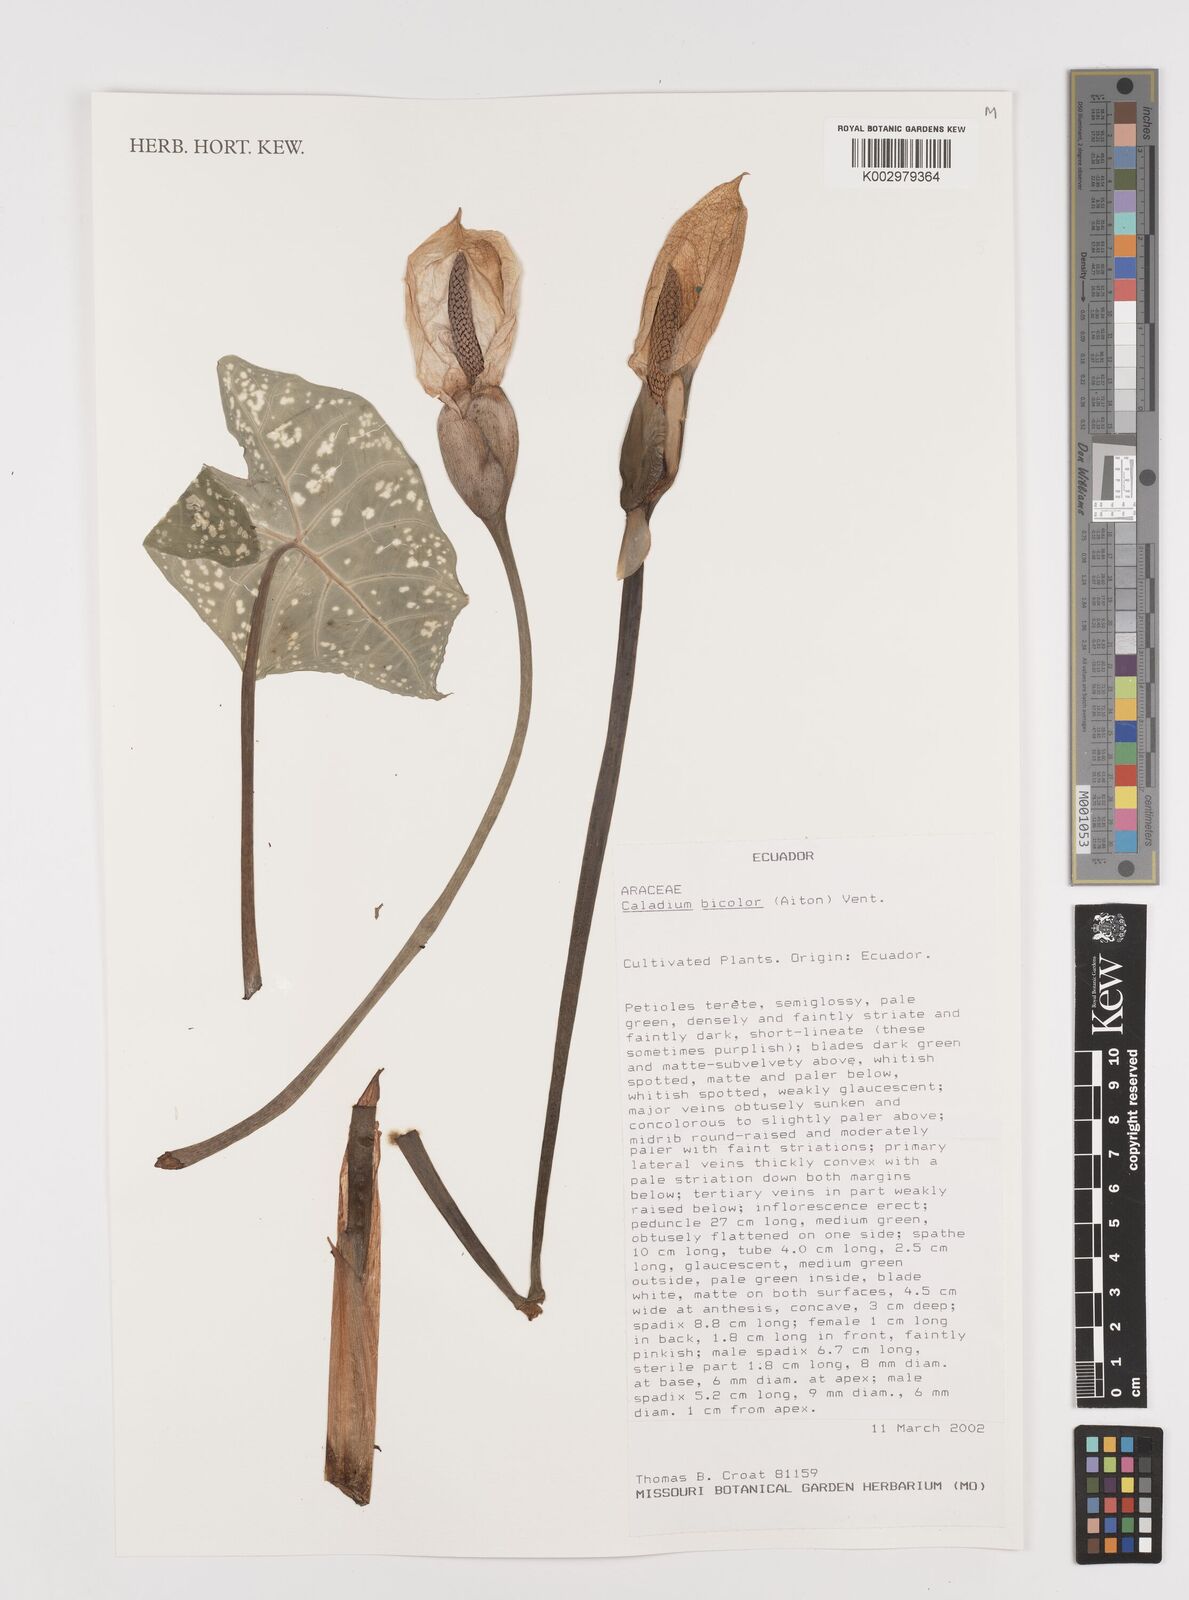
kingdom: Plantae
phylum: Tracheophyta
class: Liliopsida
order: Alismatales
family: Araceae
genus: Caladium
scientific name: Caladium bicolor
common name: Artist's pallet
